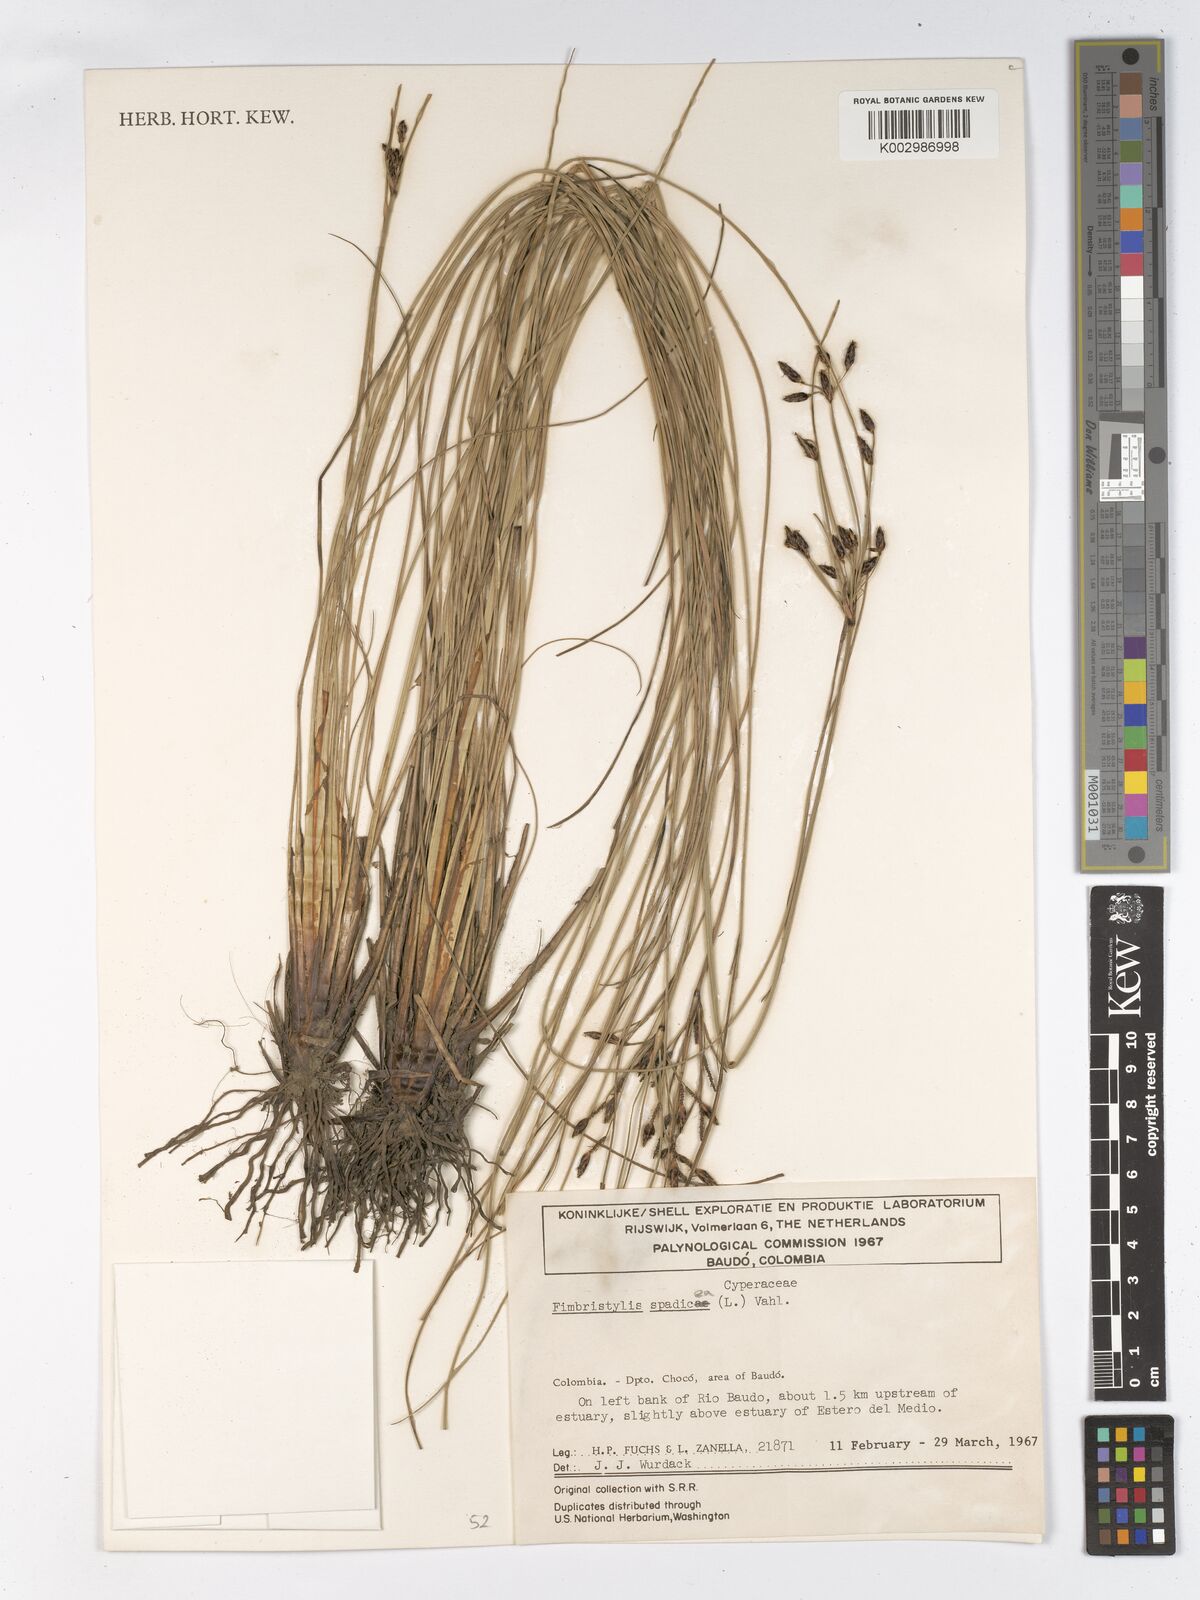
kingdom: Plantae
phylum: Tracheophyta
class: Liliopsida
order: Poales
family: Cyperaceae
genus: Fimbristylis
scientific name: Fimbristylis spadicea
